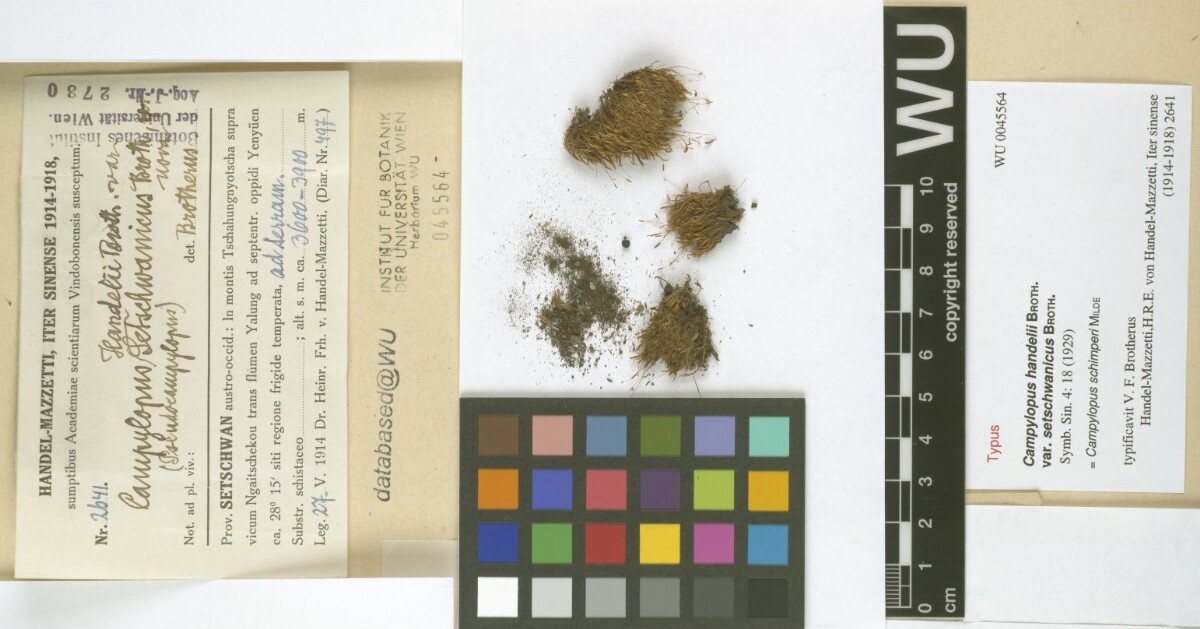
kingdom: Plantae
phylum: Bryophyta
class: Bryopsida
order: Dicranales
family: Leucobryaceae
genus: Campylopus
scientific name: Campylopus schimperi
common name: Schimper's swan-neck moss
